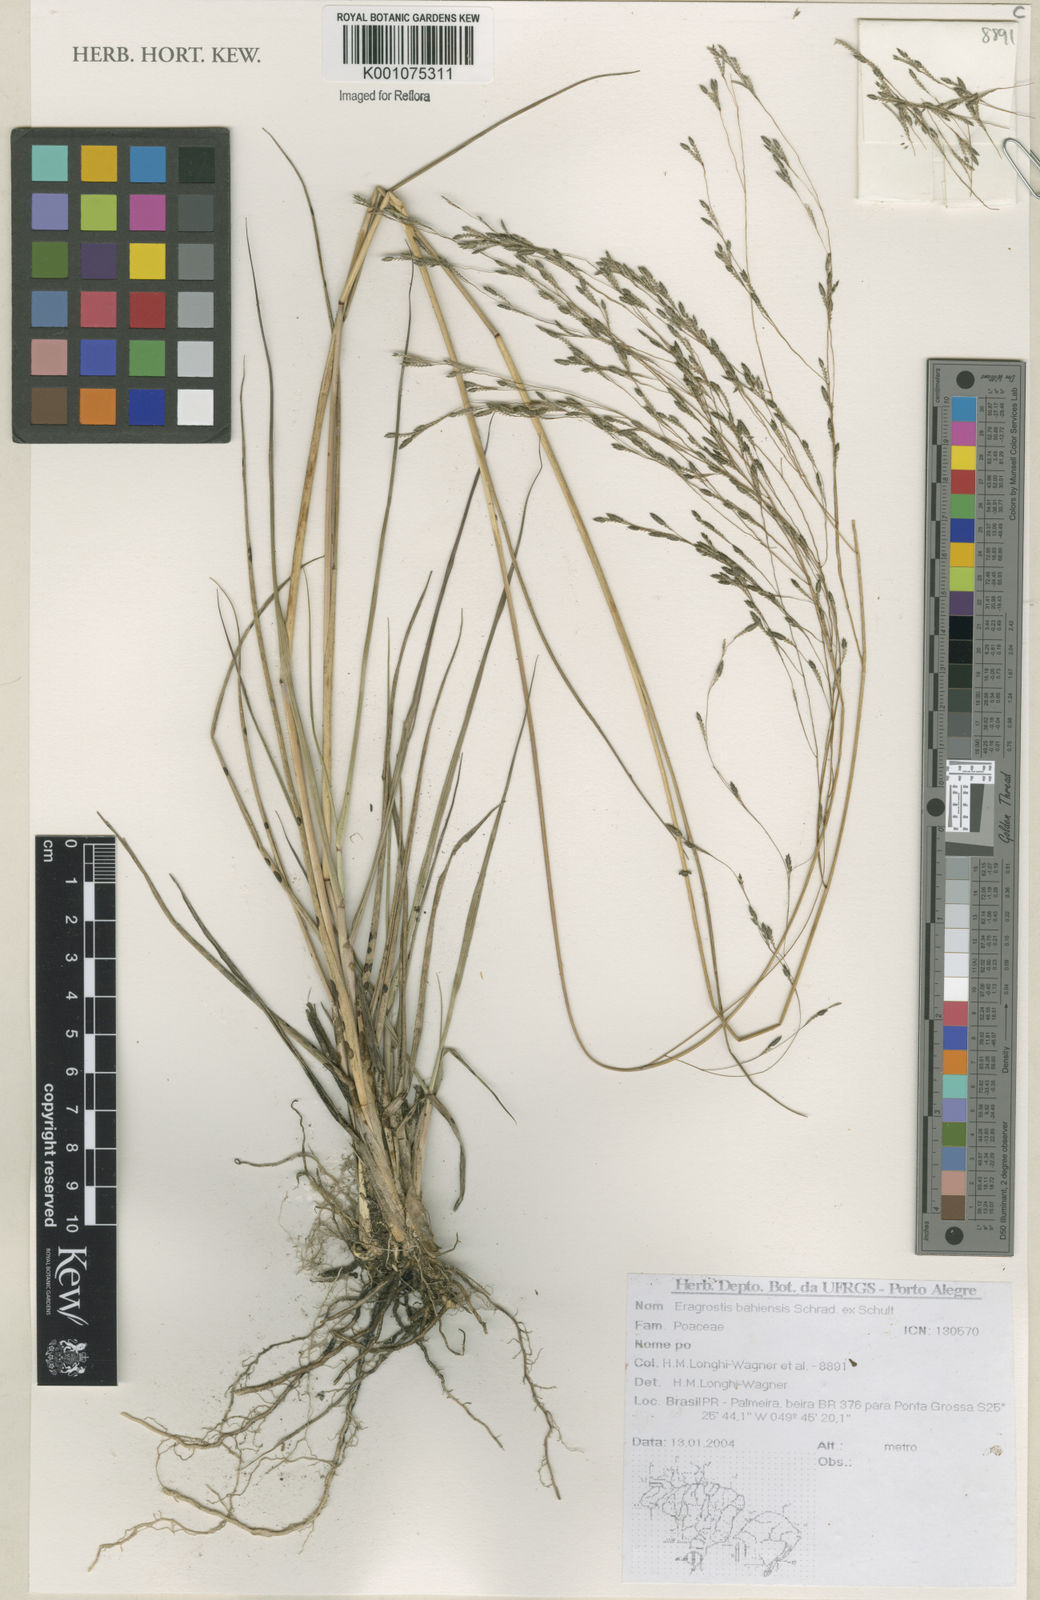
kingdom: Plantae
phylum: Tracheophyta
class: Liliopsida
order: Poales
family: Poaceae
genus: Eragrostis
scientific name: Eragrostis bahiensis
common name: Bahia lovegrass
